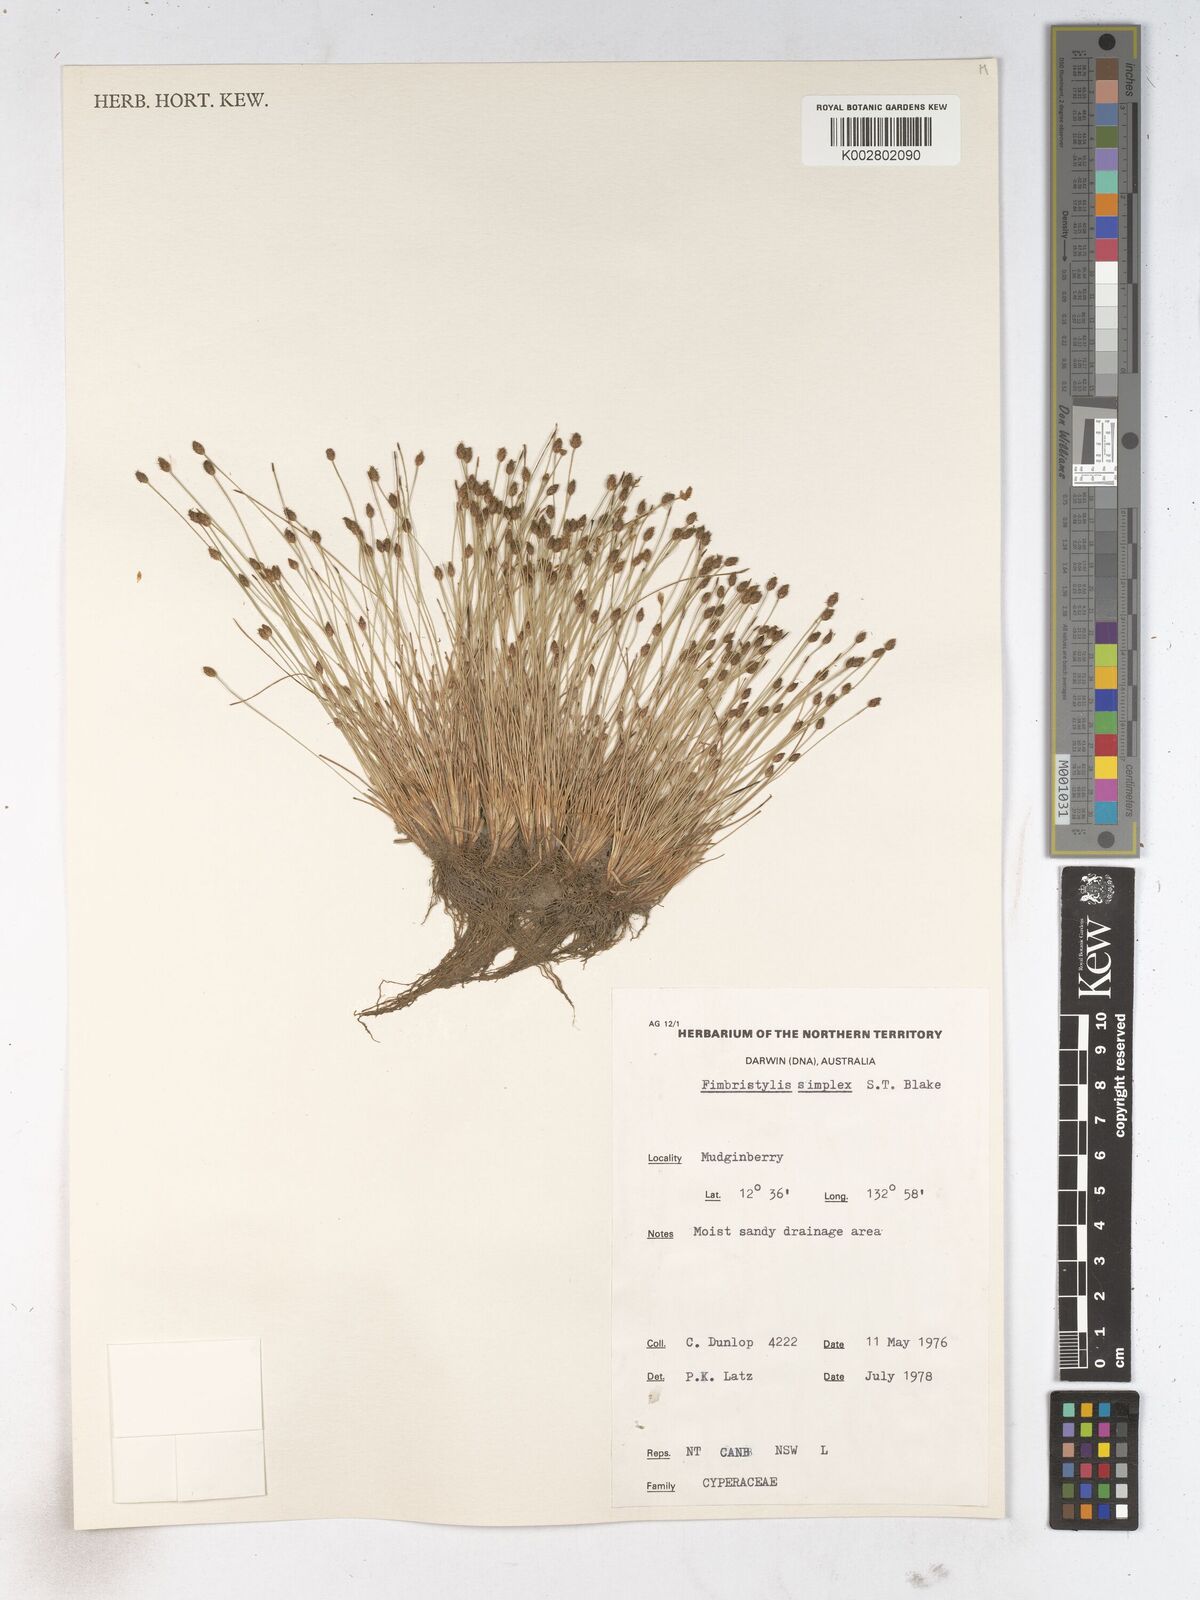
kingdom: Plantae
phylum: Tracheophyta
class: Liliopsida
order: Poales
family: Cyperaceae
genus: Fimbristylis
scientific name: Fimbristylis simplex
